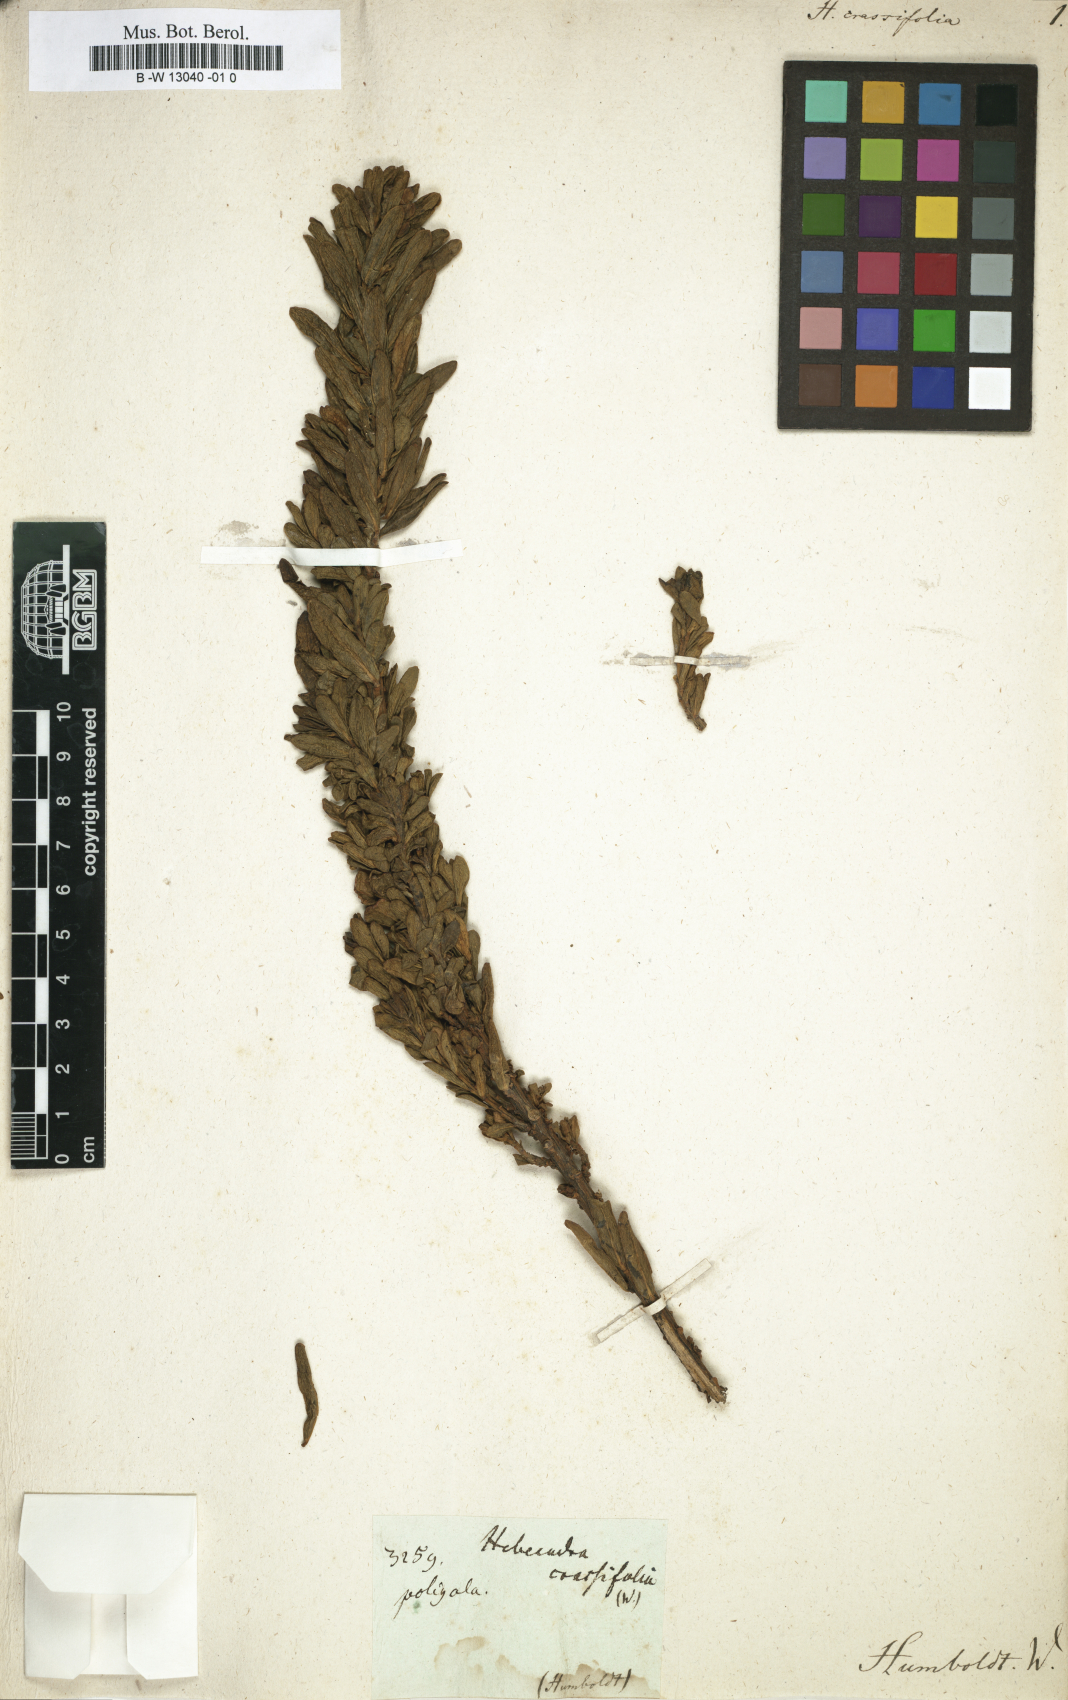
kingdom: Plantae
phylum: Tracheophyta
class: Magnoliopsida
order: Fabales
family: Polygalaceae
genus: Monnina
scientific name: Monnina crassifolia
